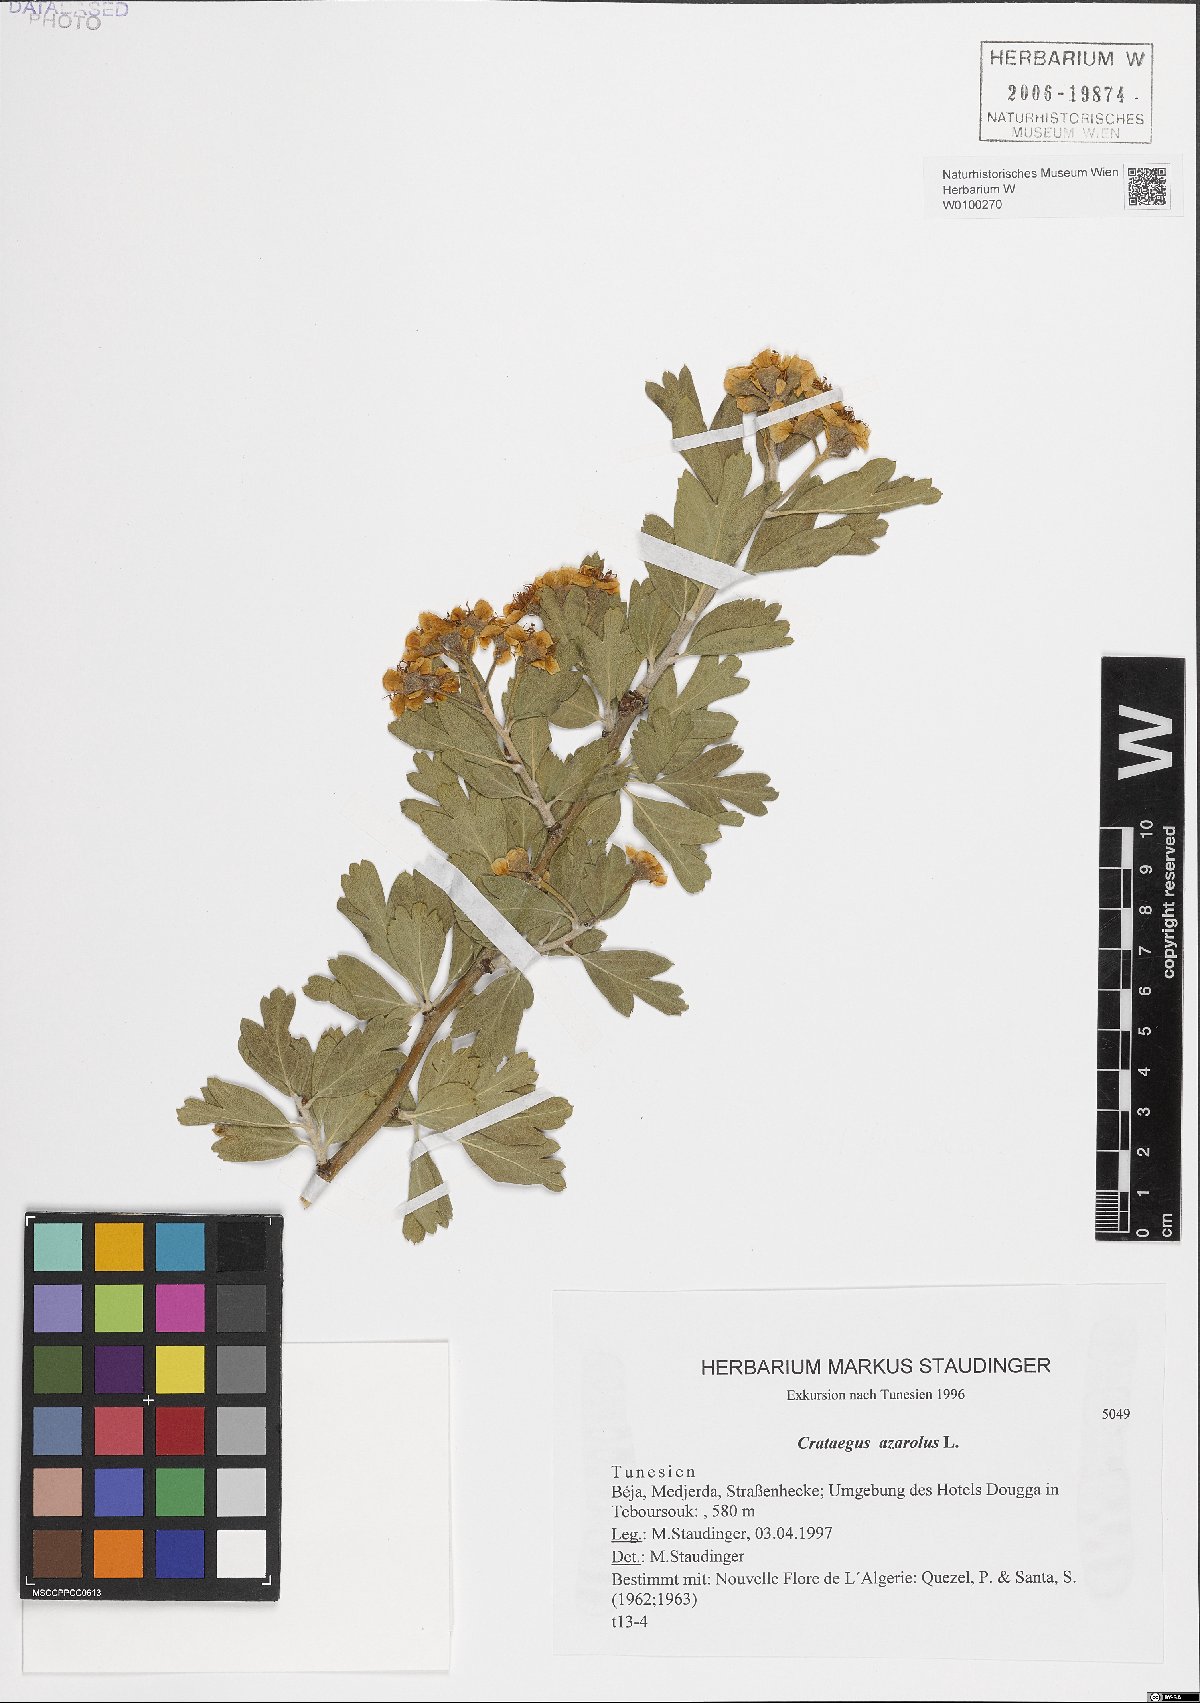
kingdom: Plantae
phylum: Tracheophyta
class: Magnoliopsida
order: Rosales
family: Rosaceae
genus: Crataegus
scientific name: Crataegus azarolus
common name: Azarole
